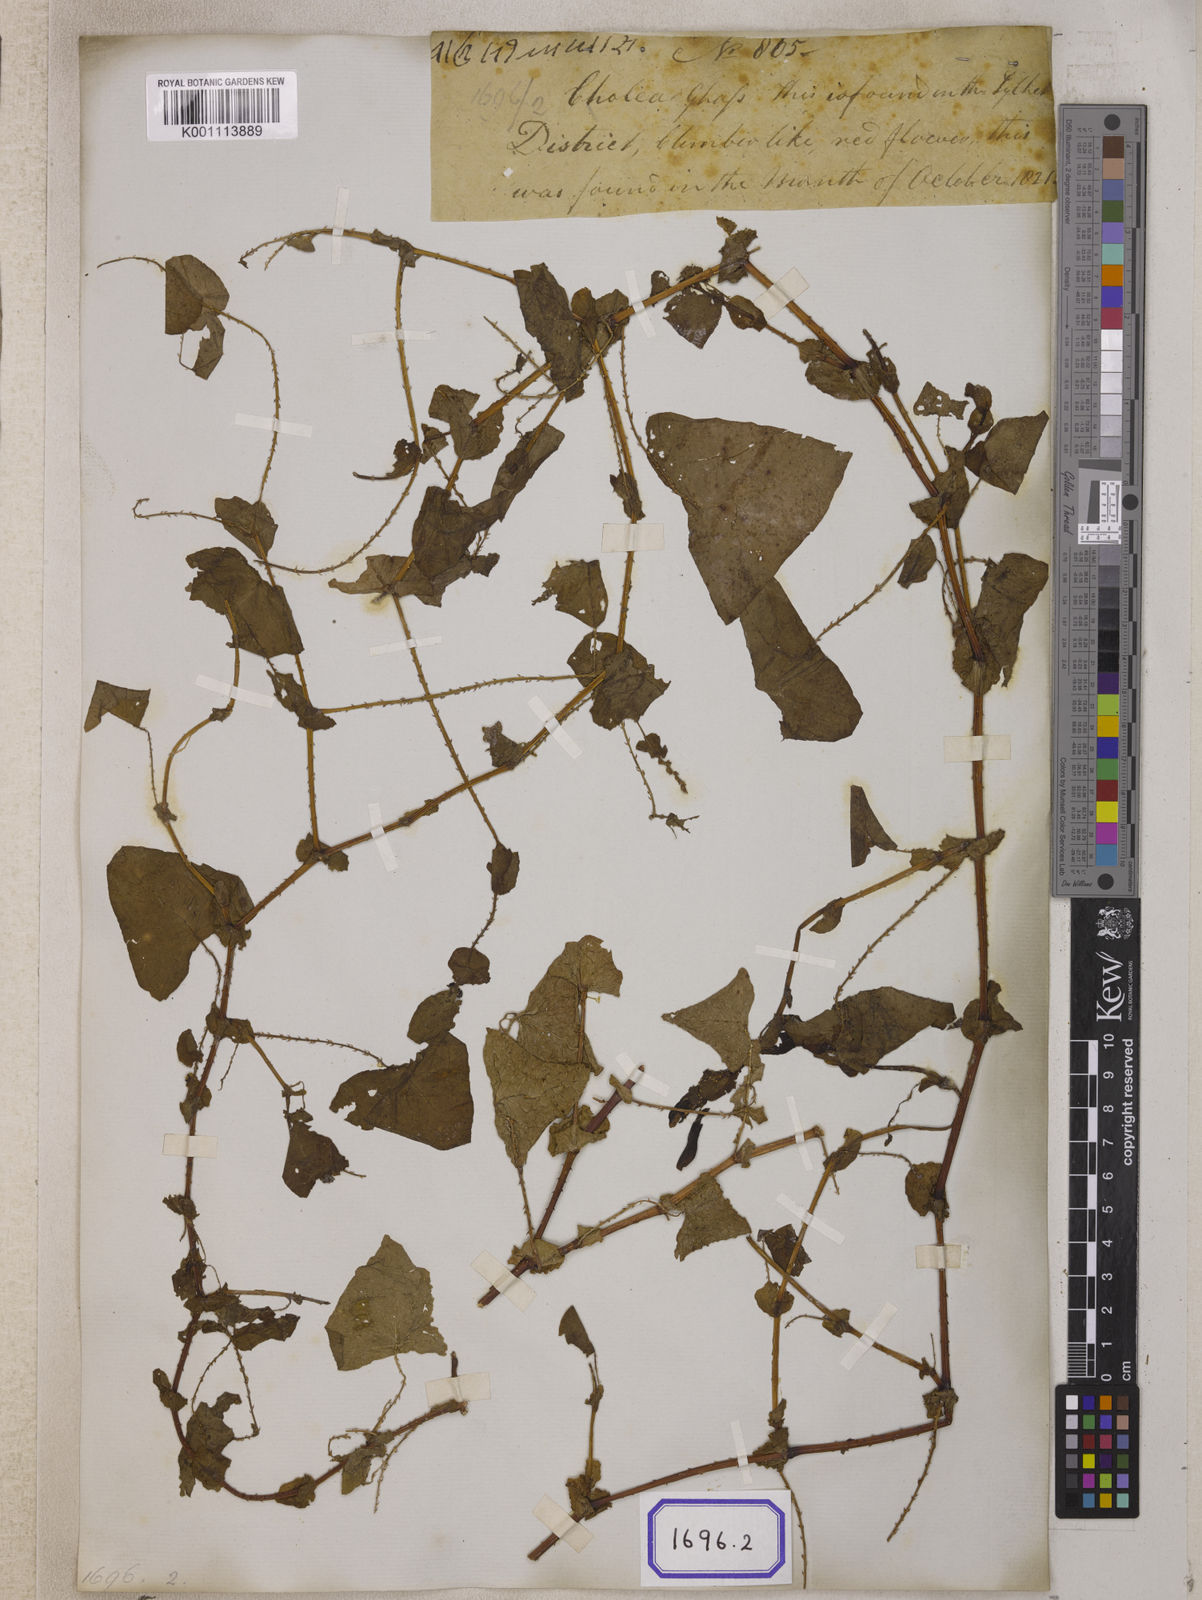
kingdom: Plantae
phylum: Tracheophyta
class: Magnoliopsida
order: Caryophyllales
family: Polygonaceae
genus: Persicaria
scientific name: Persicaria perfoliata
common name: Asiatic tearthumb
